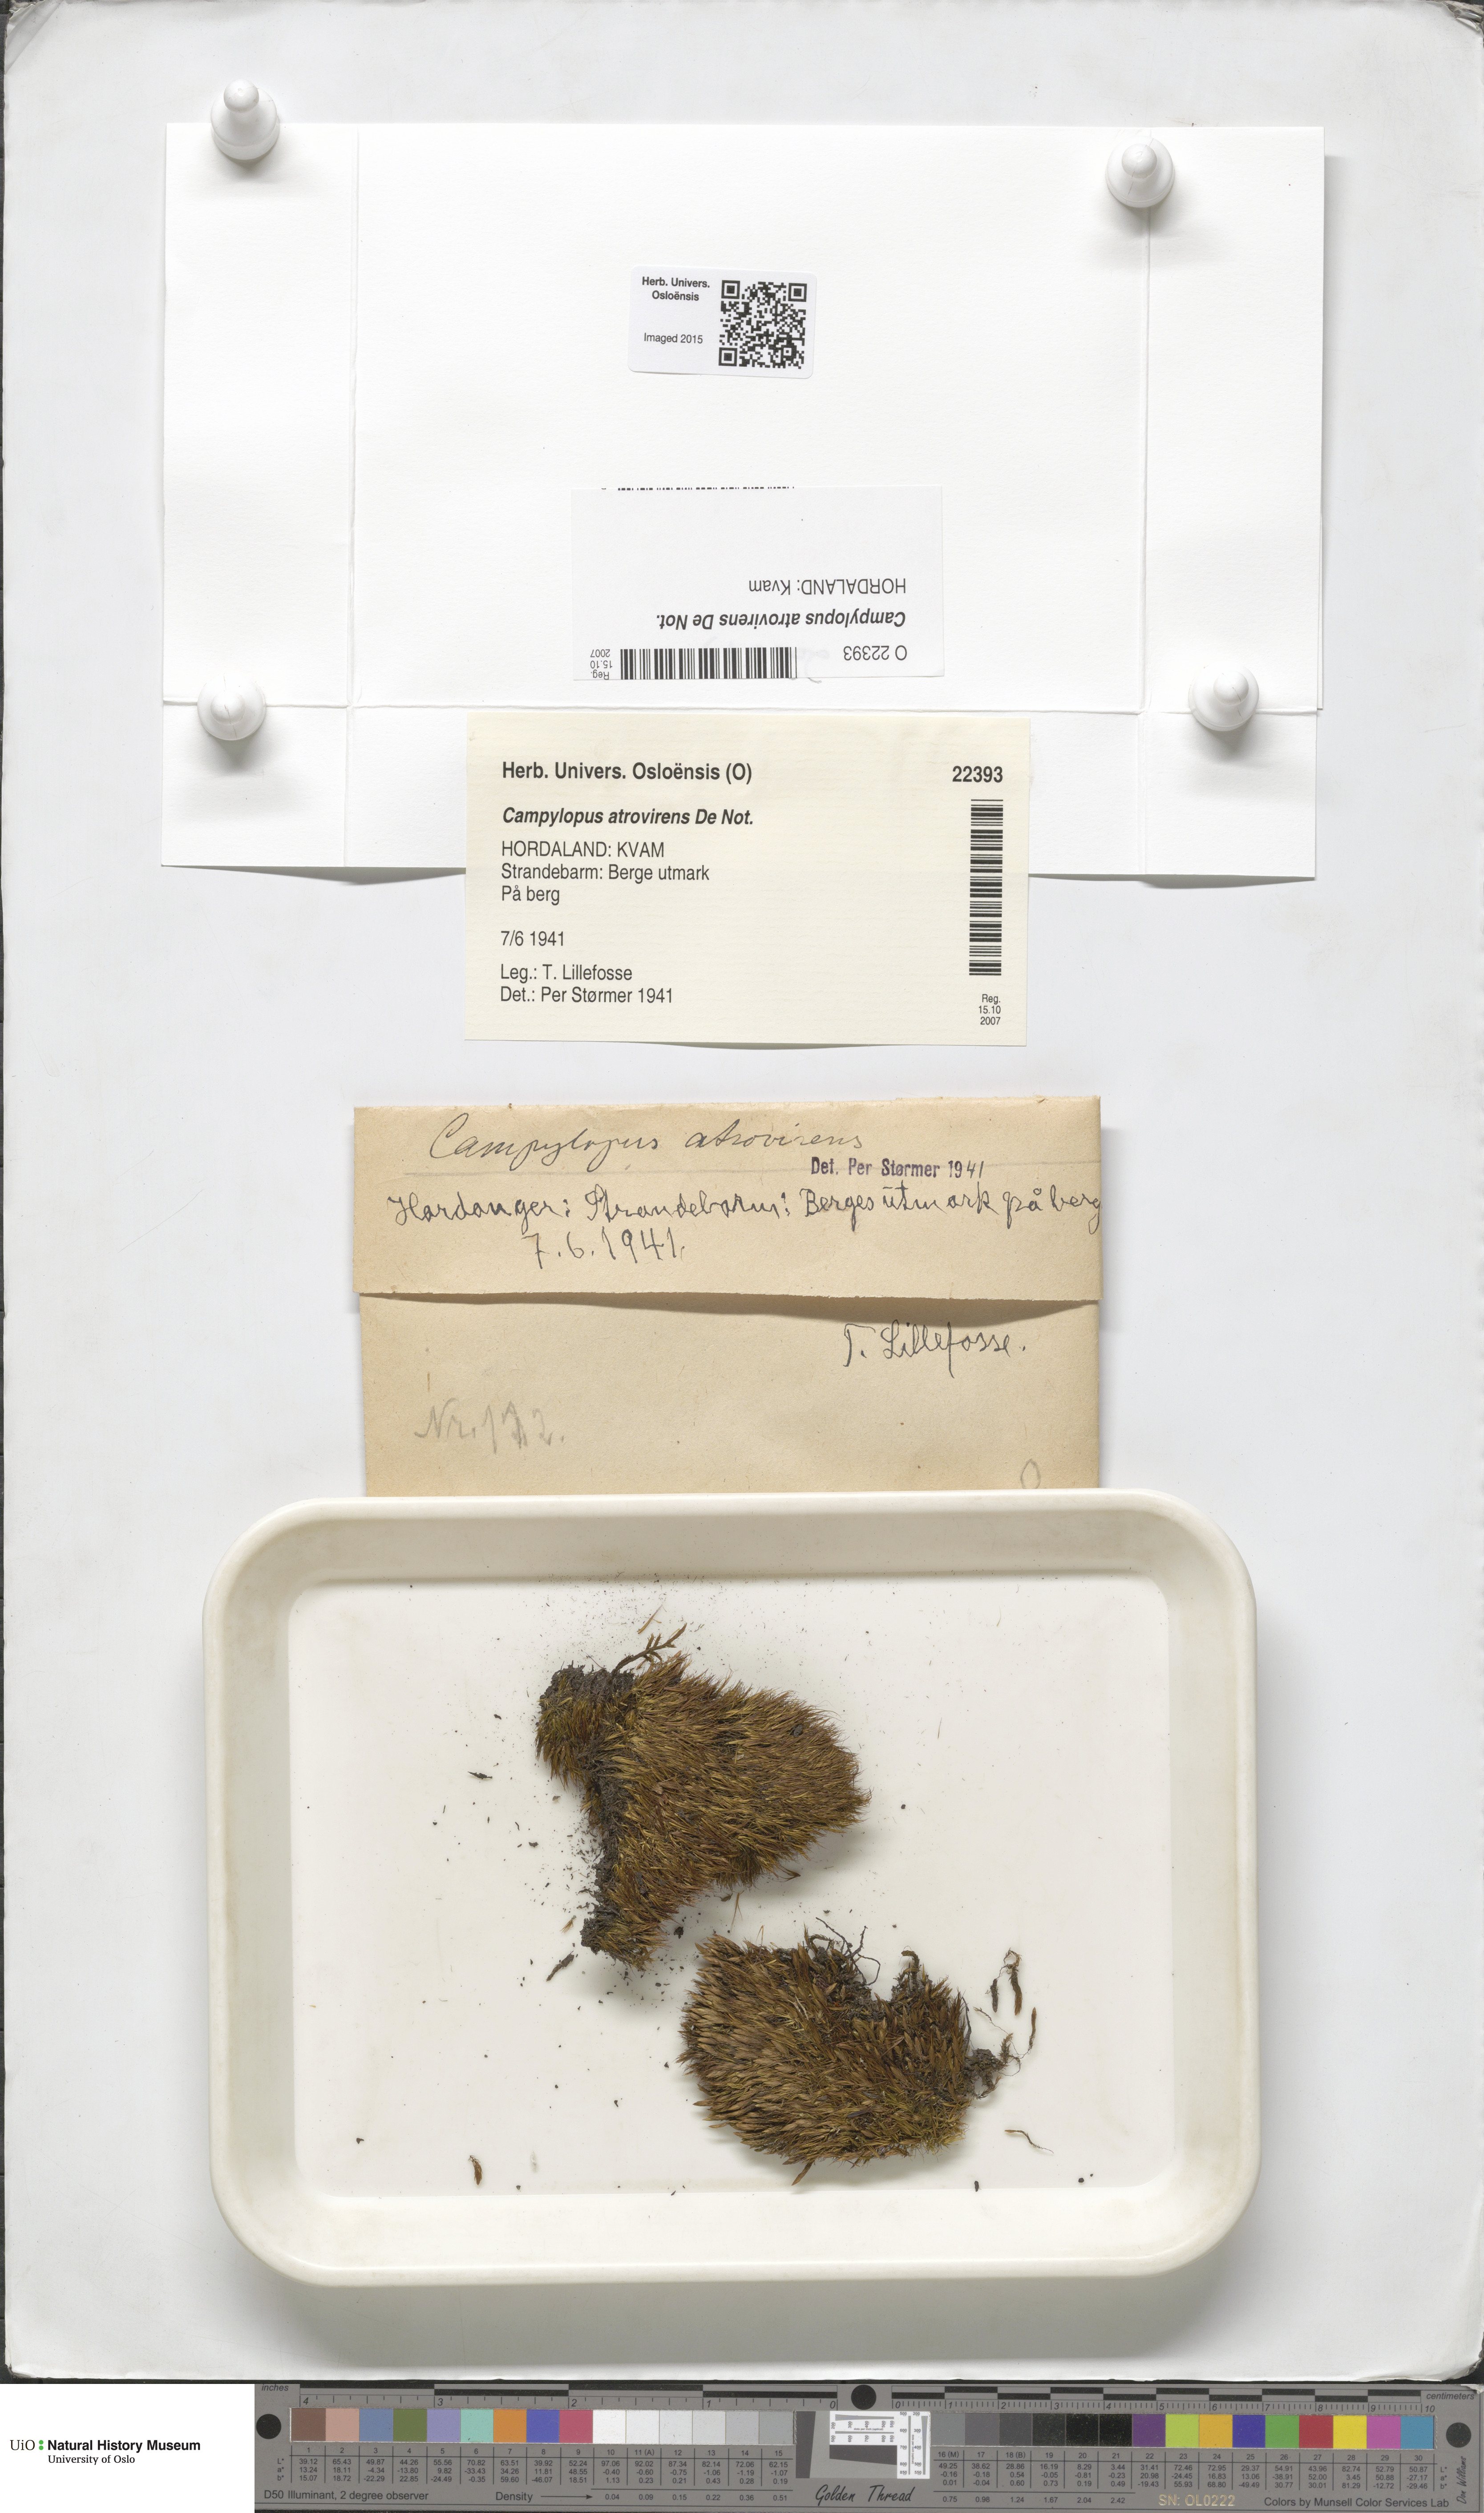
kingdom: Plantae
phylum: Bryophyta
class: Bryopsida
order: Dicranales
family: Leucobryaceae
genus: Campylopus
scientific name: Campylopus atrovirens
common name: Bristly swan-neck moss
